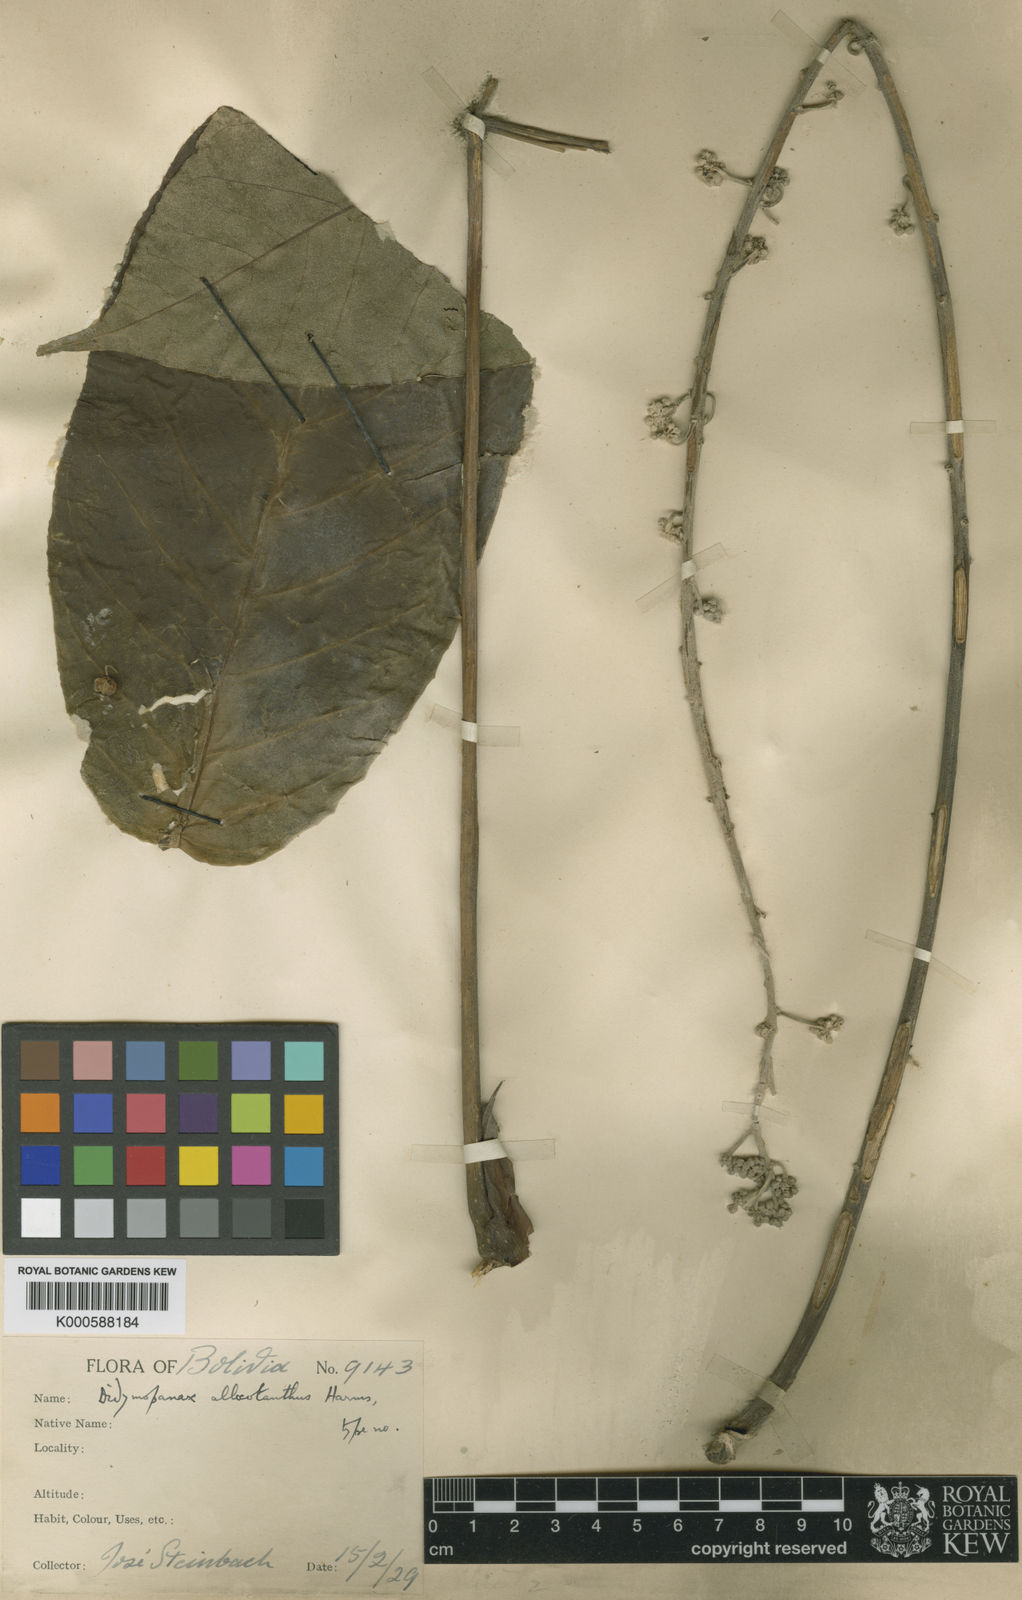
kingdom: Plantae
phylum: Tracheophyta
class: Magnoliopsida
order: Apiales
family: Araliaceae
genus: Sciodaphyllum
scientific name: Sciodaphyllum allocotanthum
